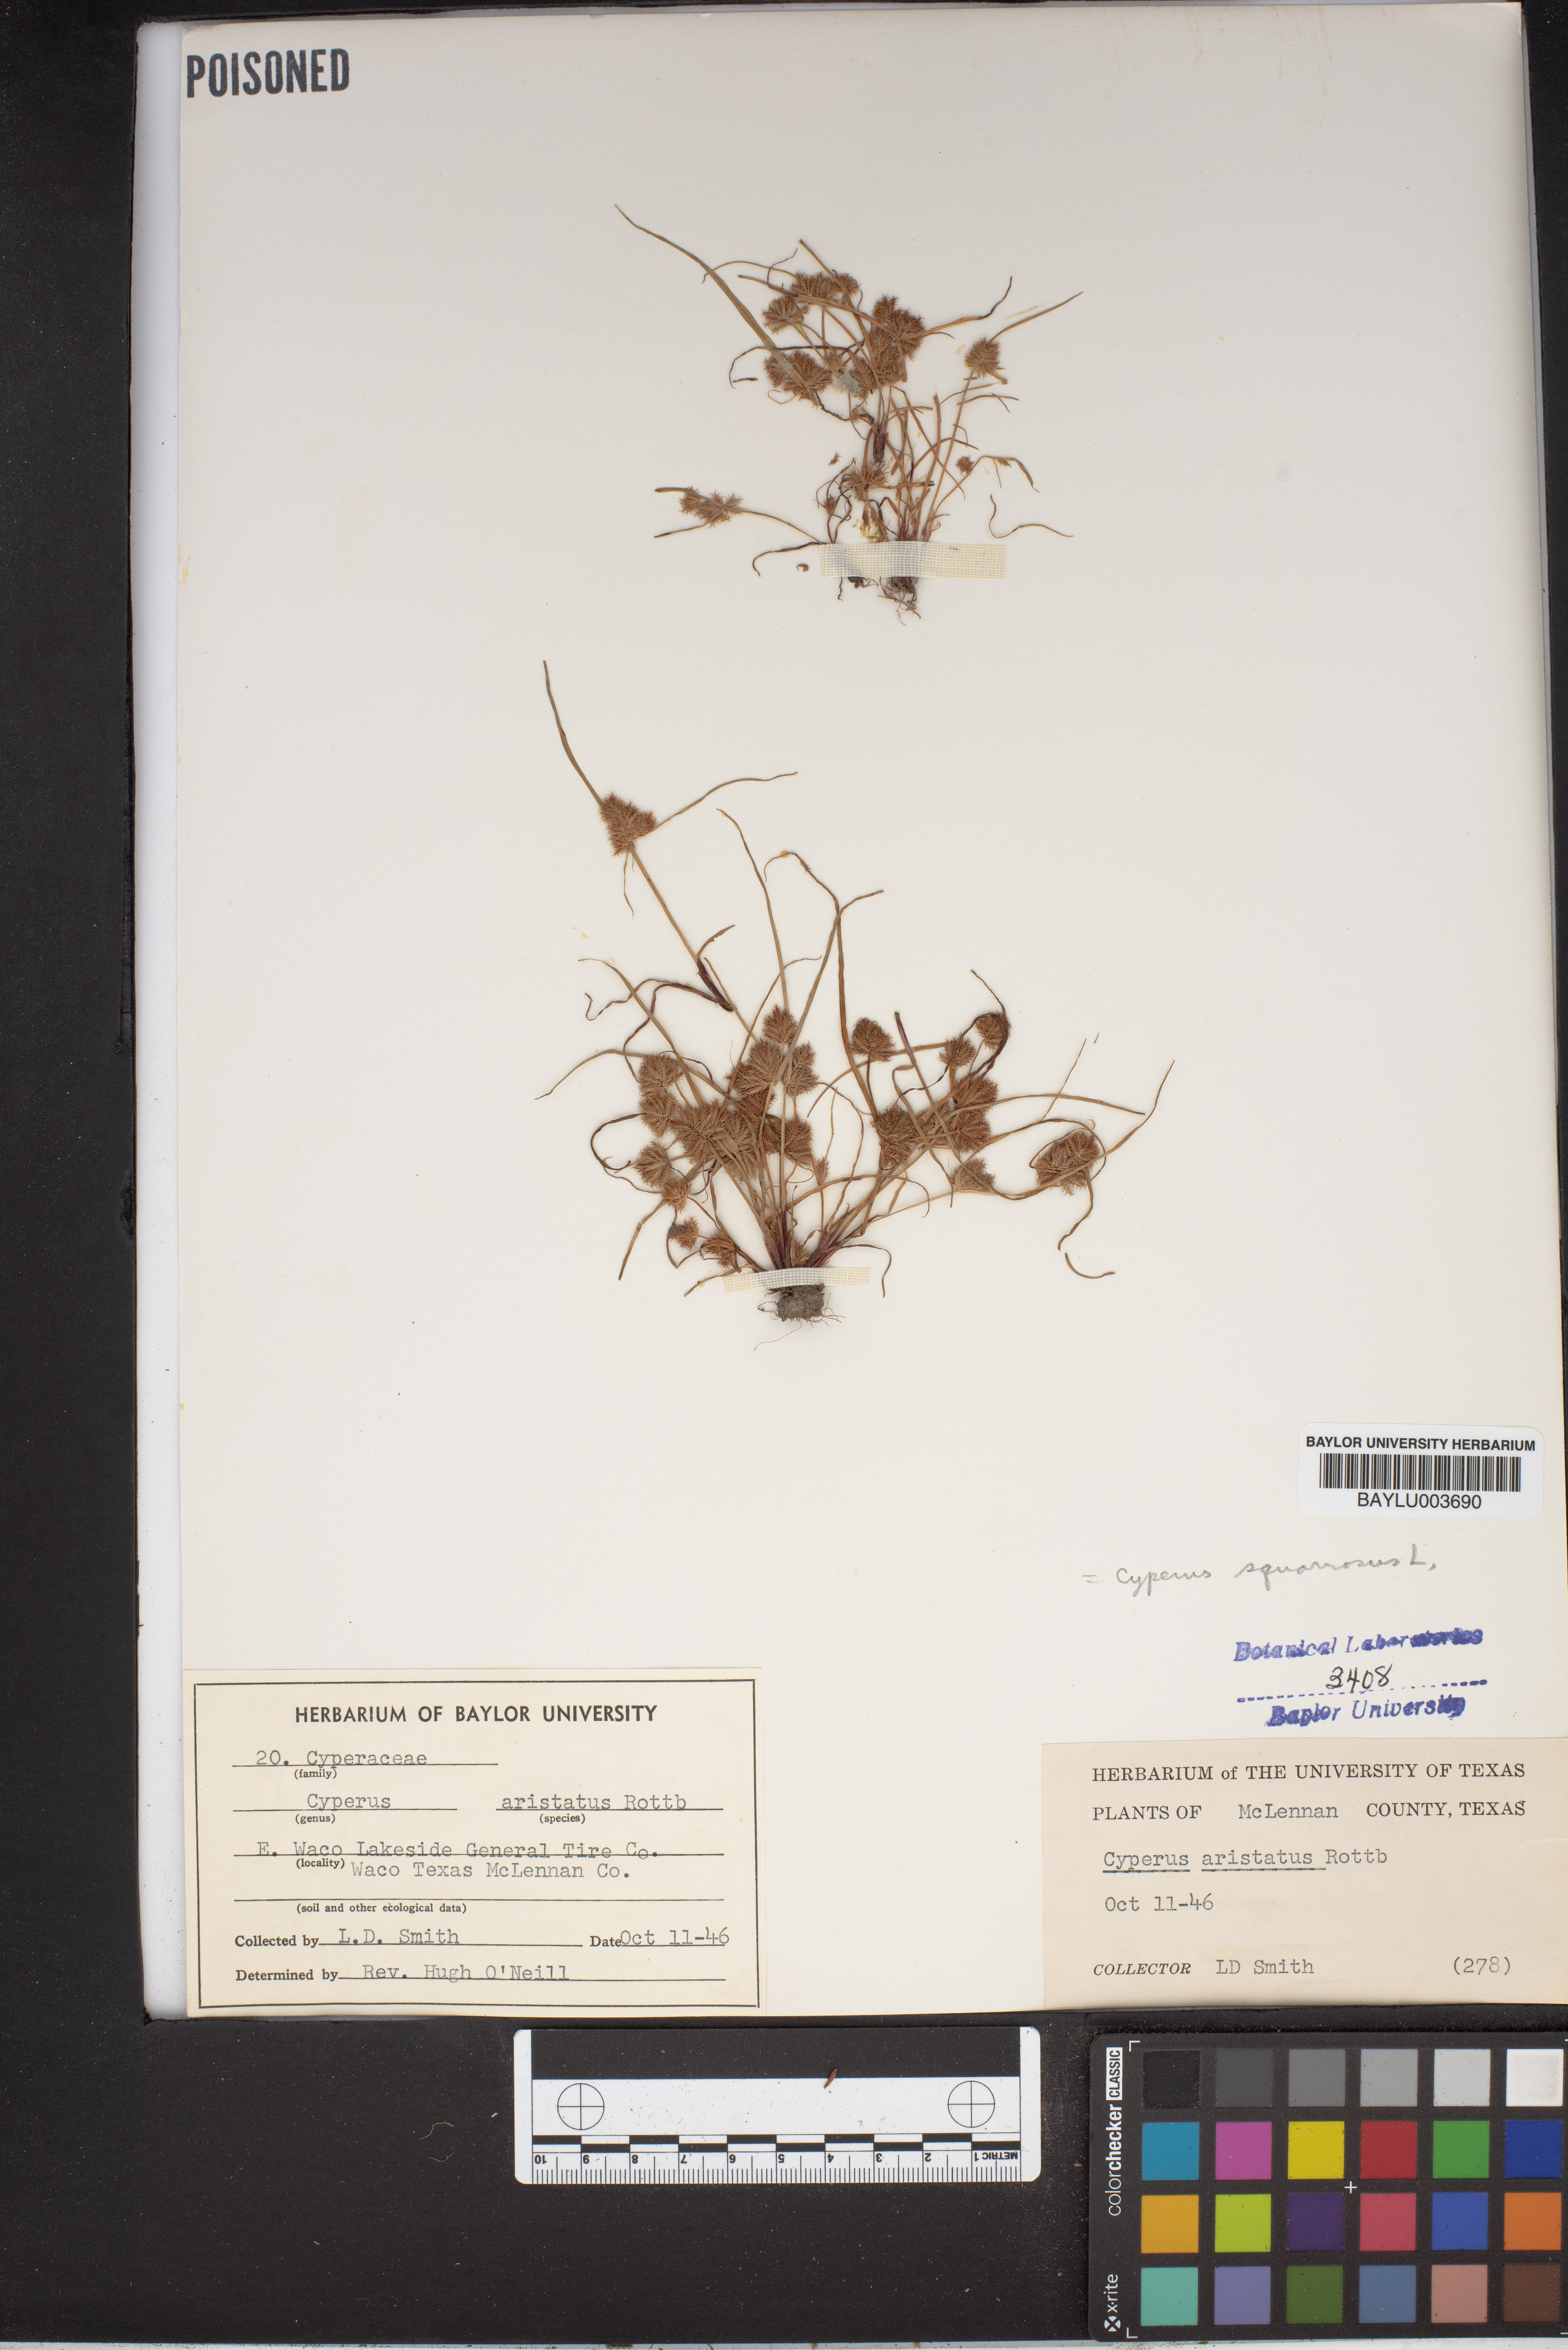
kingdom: Plantae
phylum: Tracheophyta
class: Liliopsida
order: Poales
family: Cyperaceae
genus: Cyperus
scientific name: Cyperus squarrosus
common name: Awned cyperus
